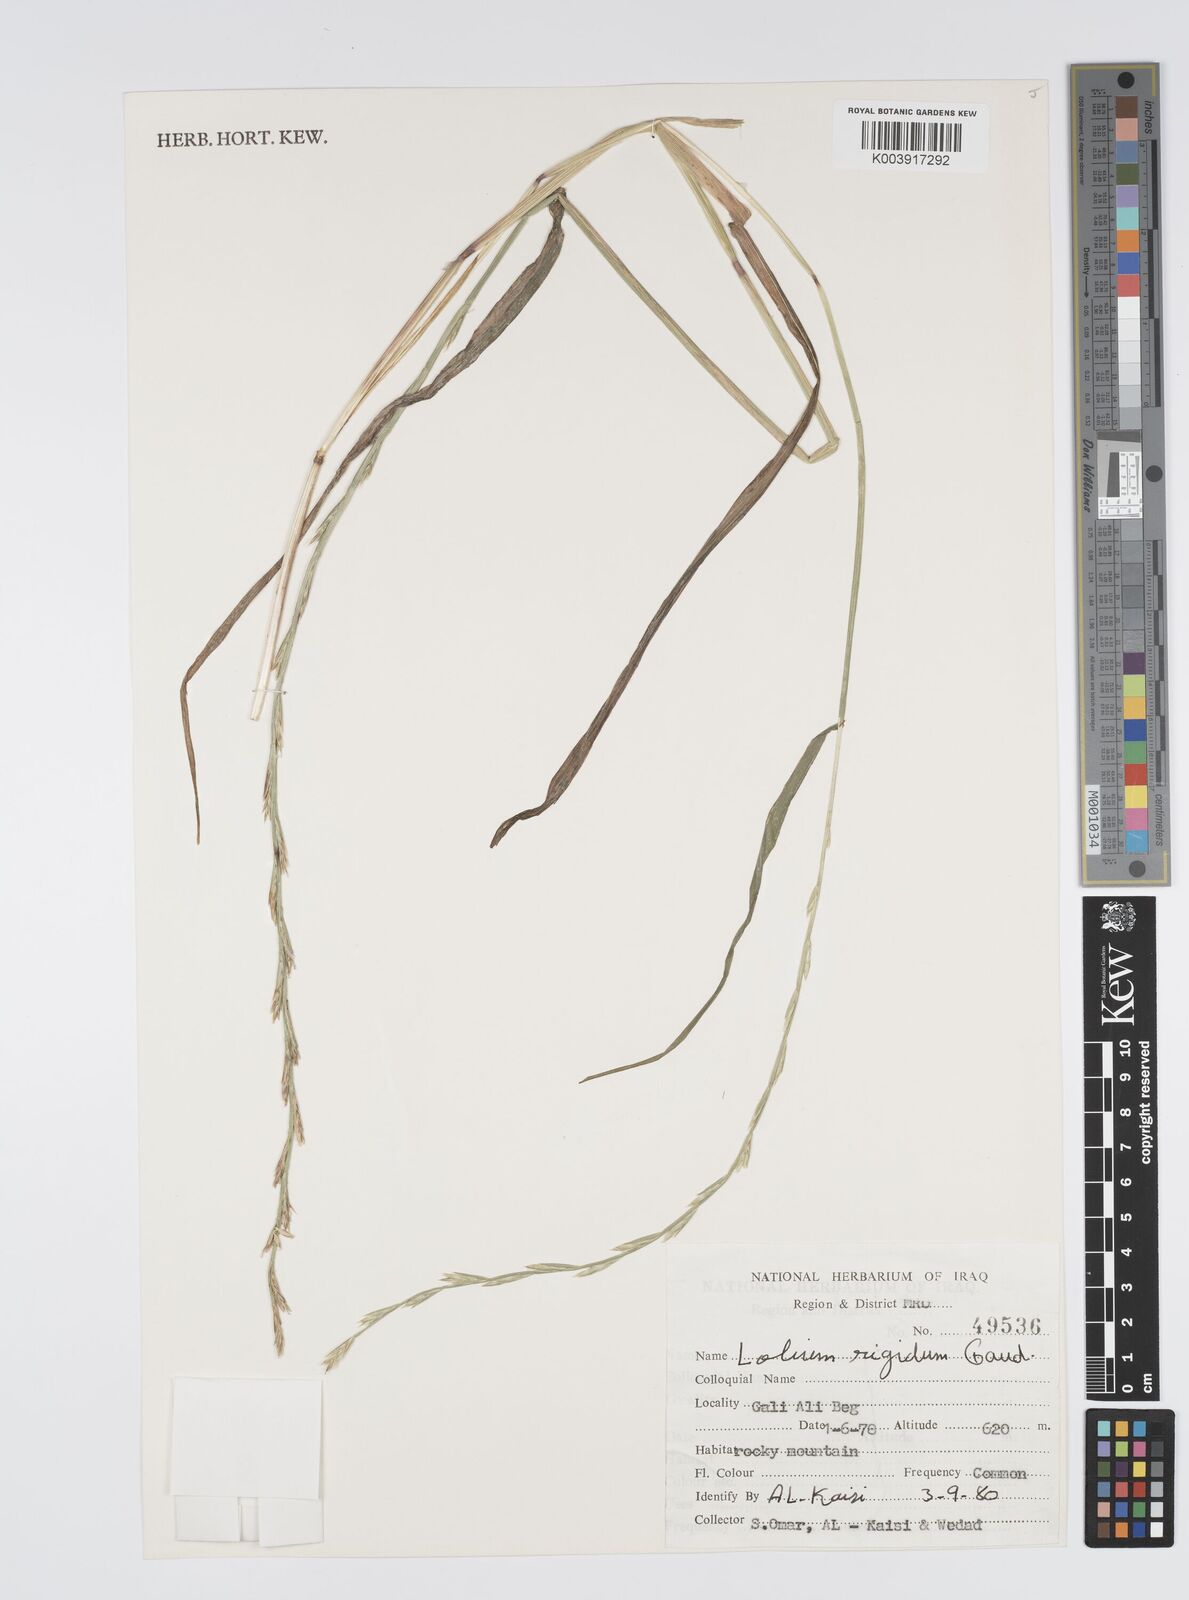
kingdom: Plantae
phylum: Tracheophyta
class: Liliopsida
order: Poales
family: Poaceae
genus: Lolium
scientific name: Lolium rigidum
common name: Wimmera ryegrass
